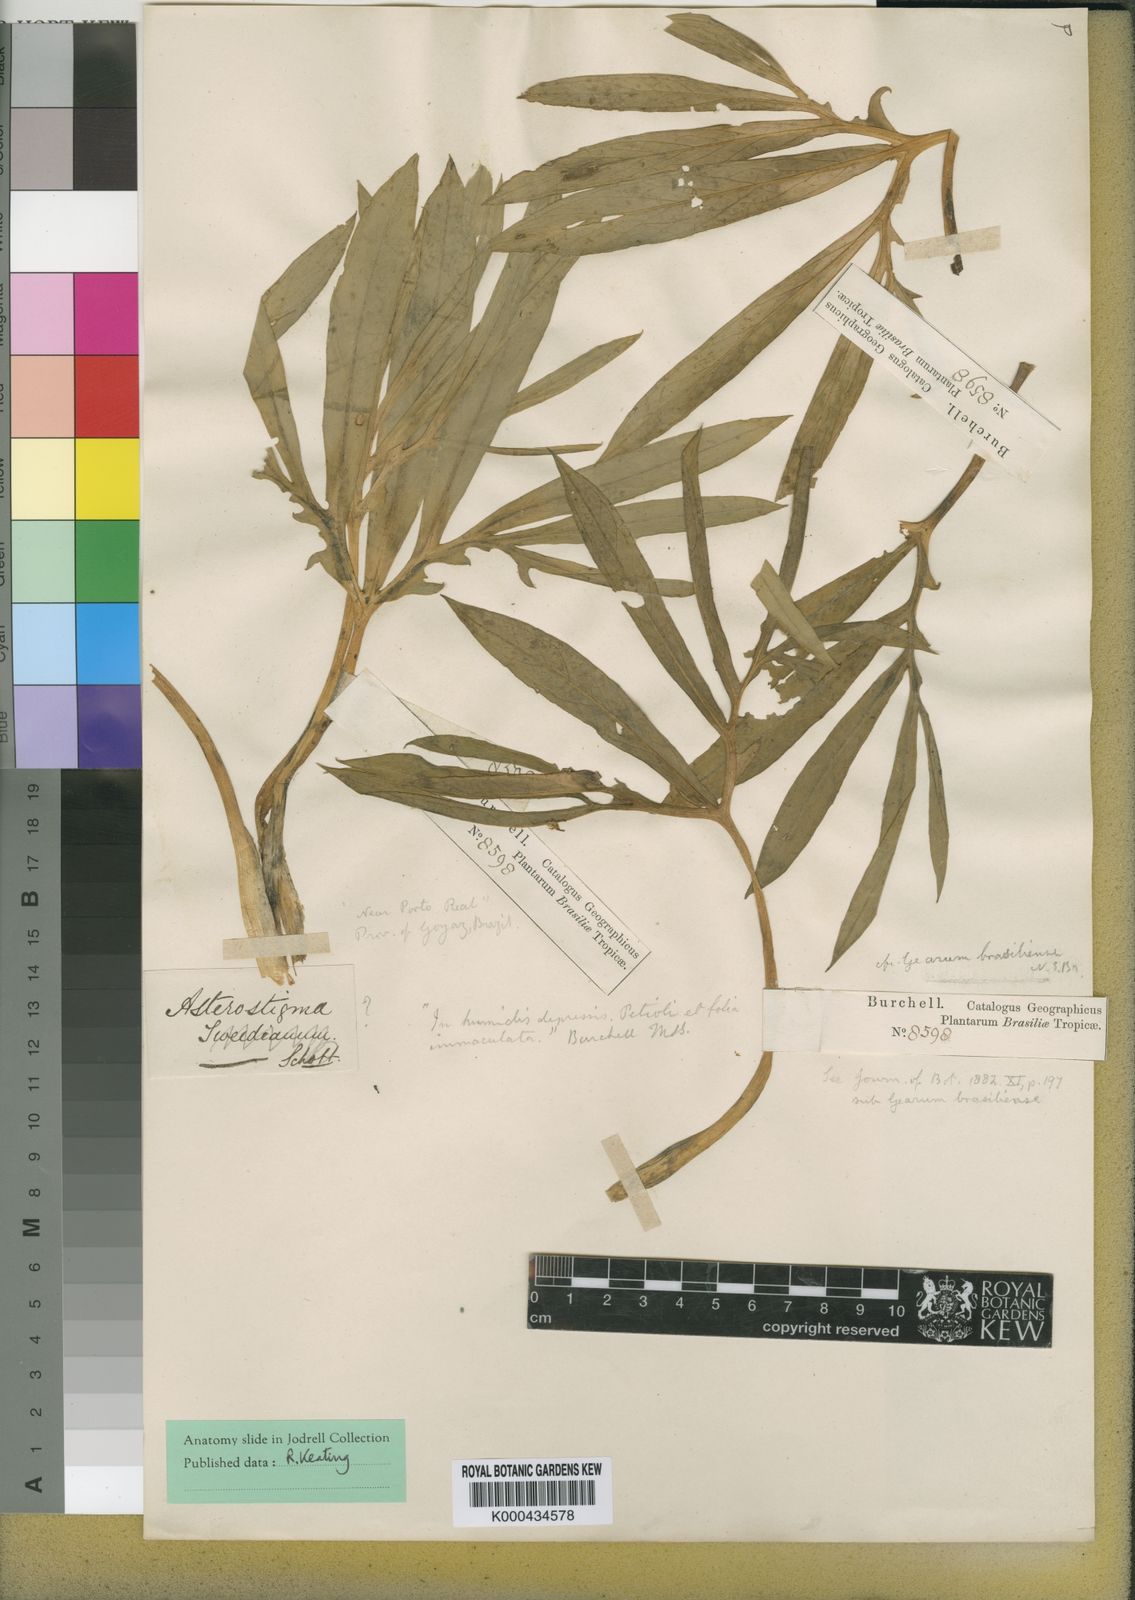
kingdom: Plantae
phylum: Tracheophyta
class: Liliopsida
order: Alismatales
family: Araceae
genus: Gearum
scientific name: Gearum brasiliense
